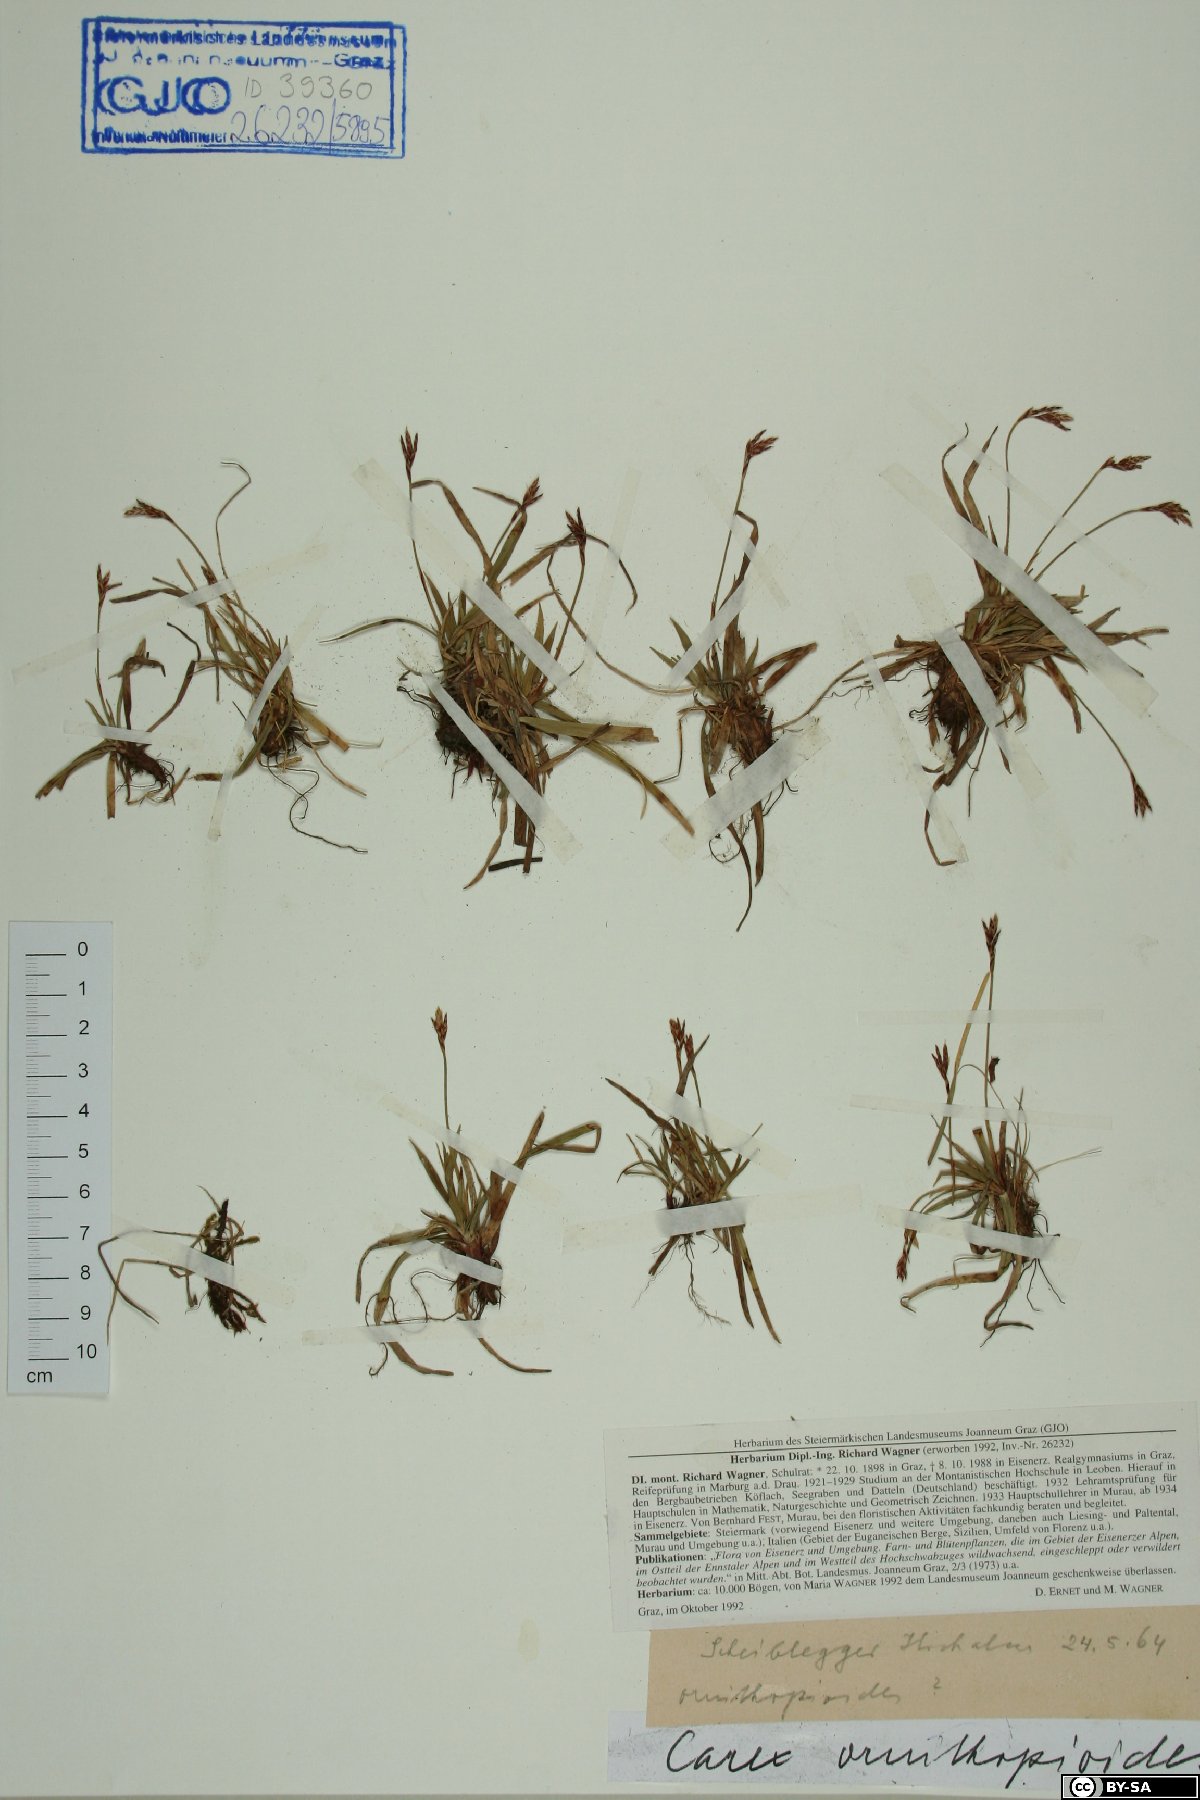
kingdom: Plantae
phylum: Tracheophyta
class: Liliopsida
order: Poales
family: Cyperaceae
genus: Carex
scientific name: Carex ornithopoda
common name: Bird's-foot sedge
